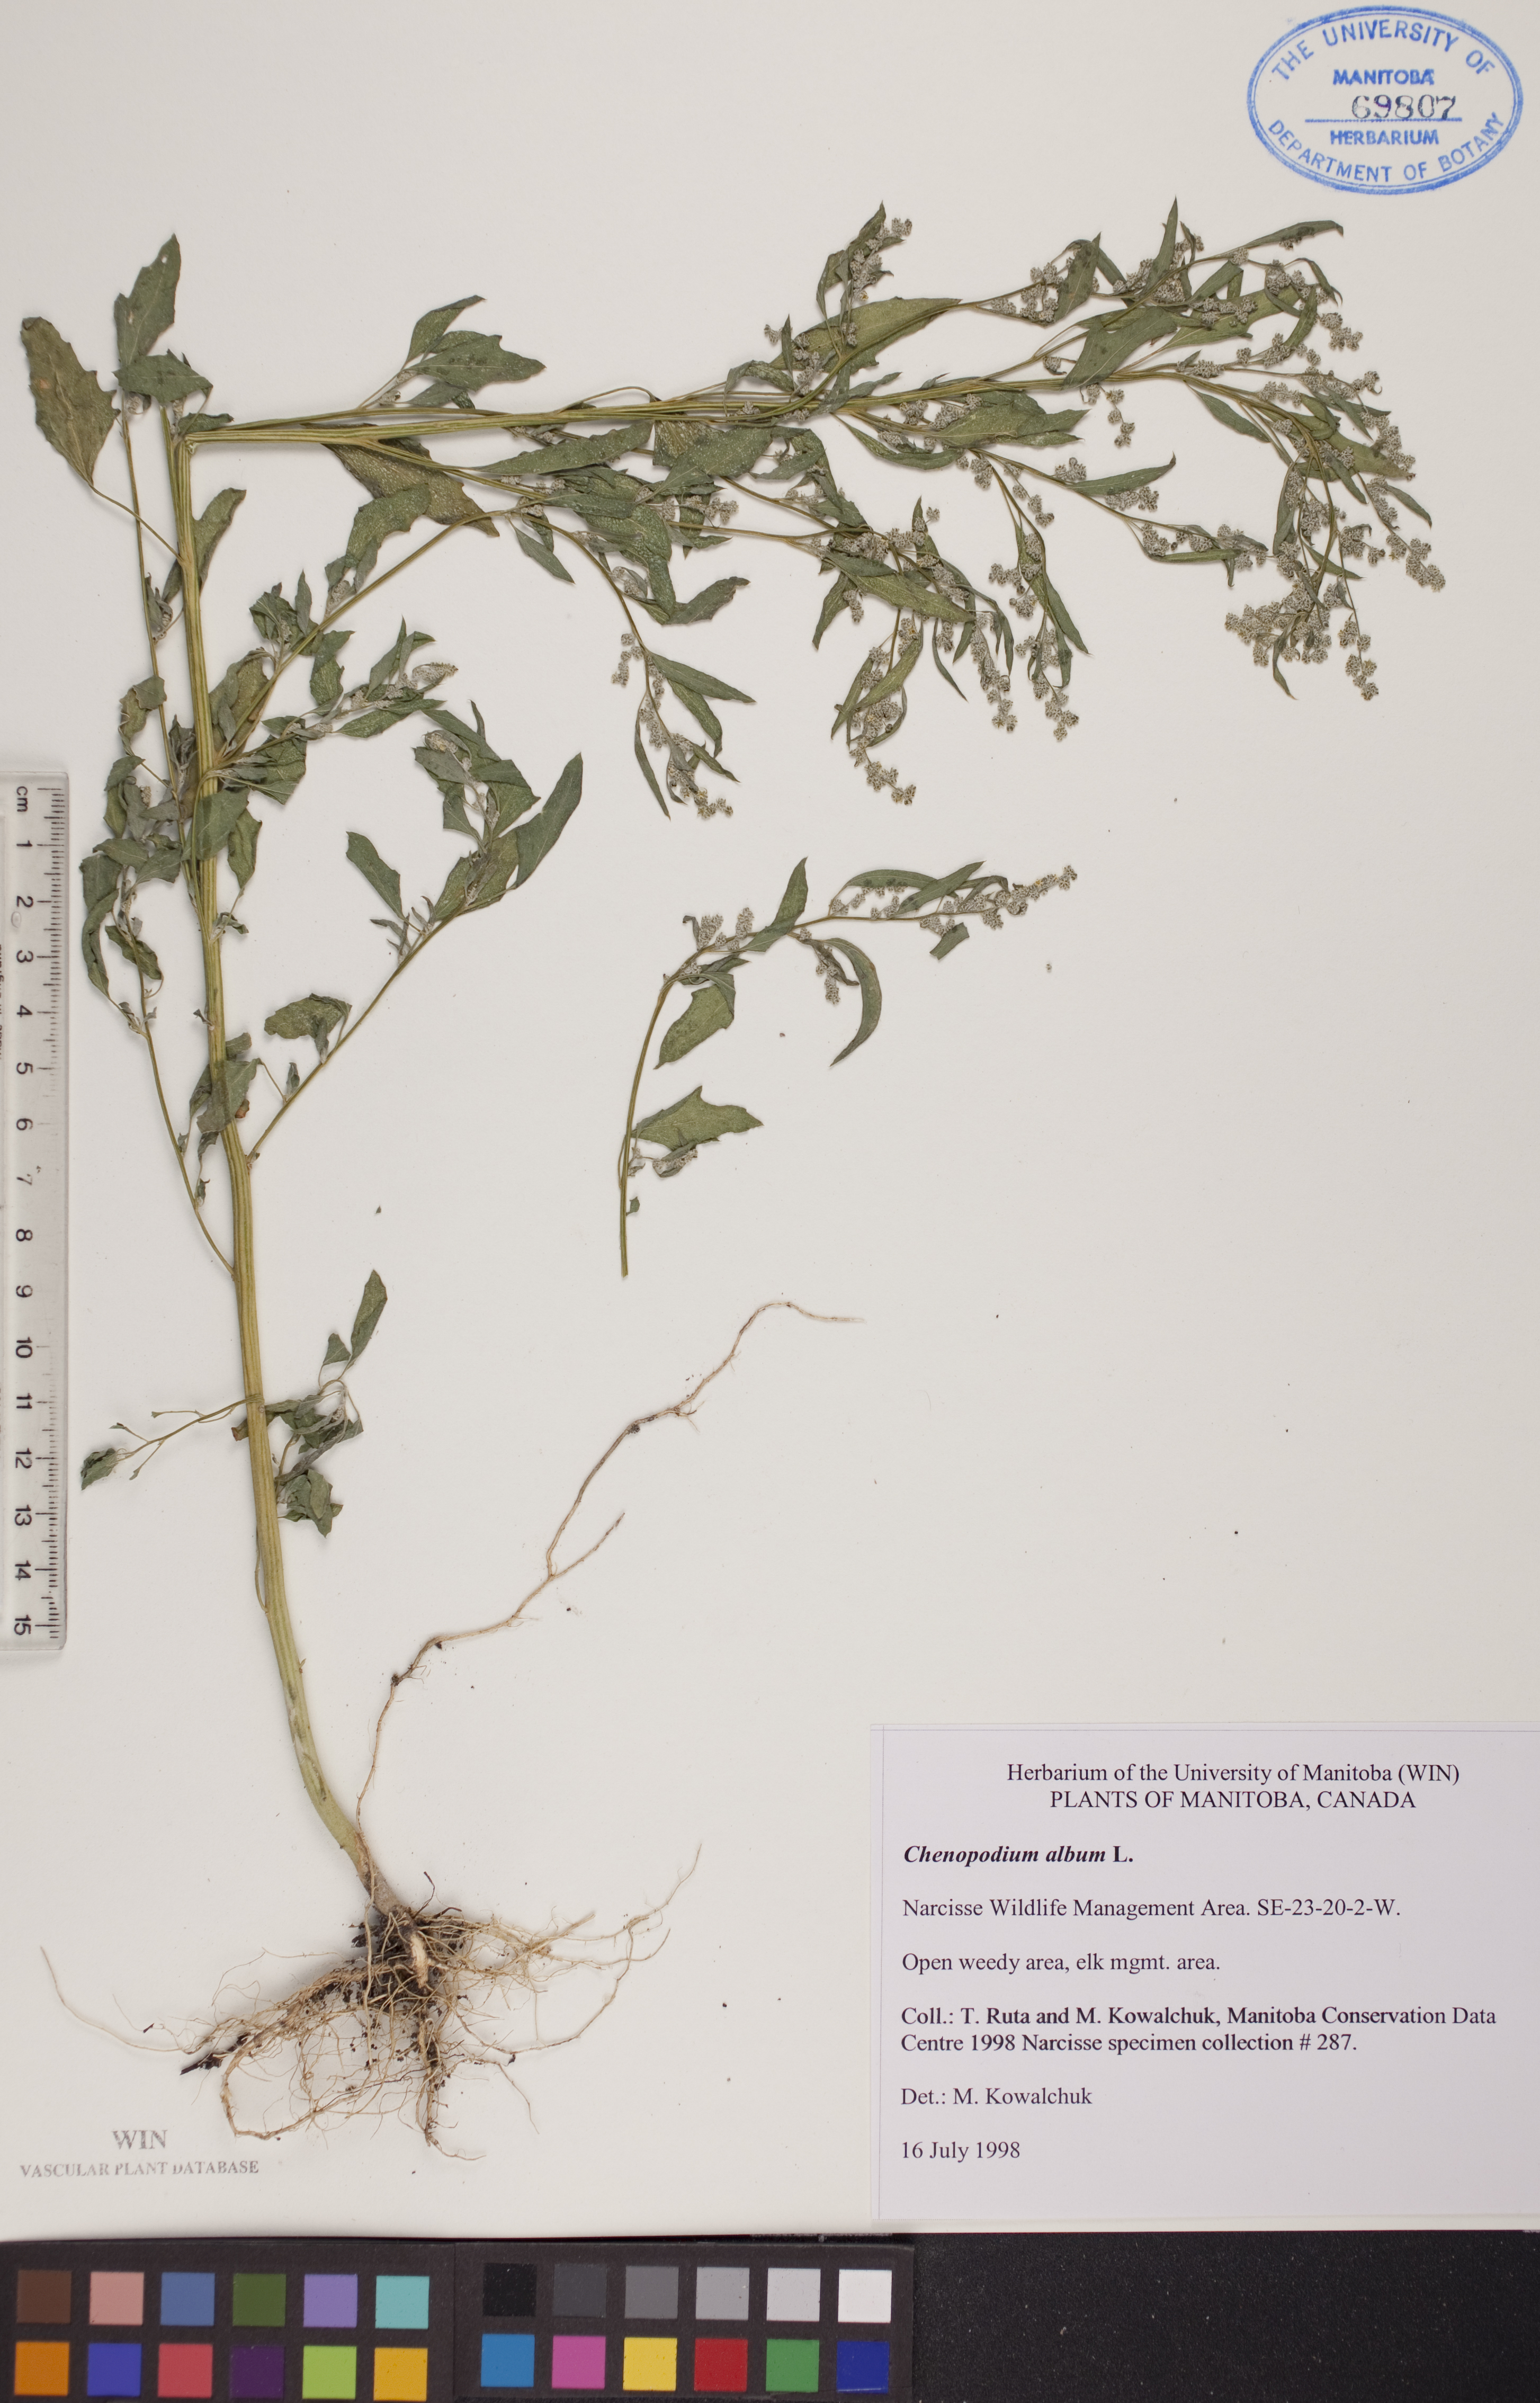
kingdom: Plantae
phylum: Tracheophyta
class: Magnoliopsida
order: Caryophyllales
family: Amaranthaceae
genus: Chenopodium
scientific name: Chenopodium album
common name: Fat-hen
